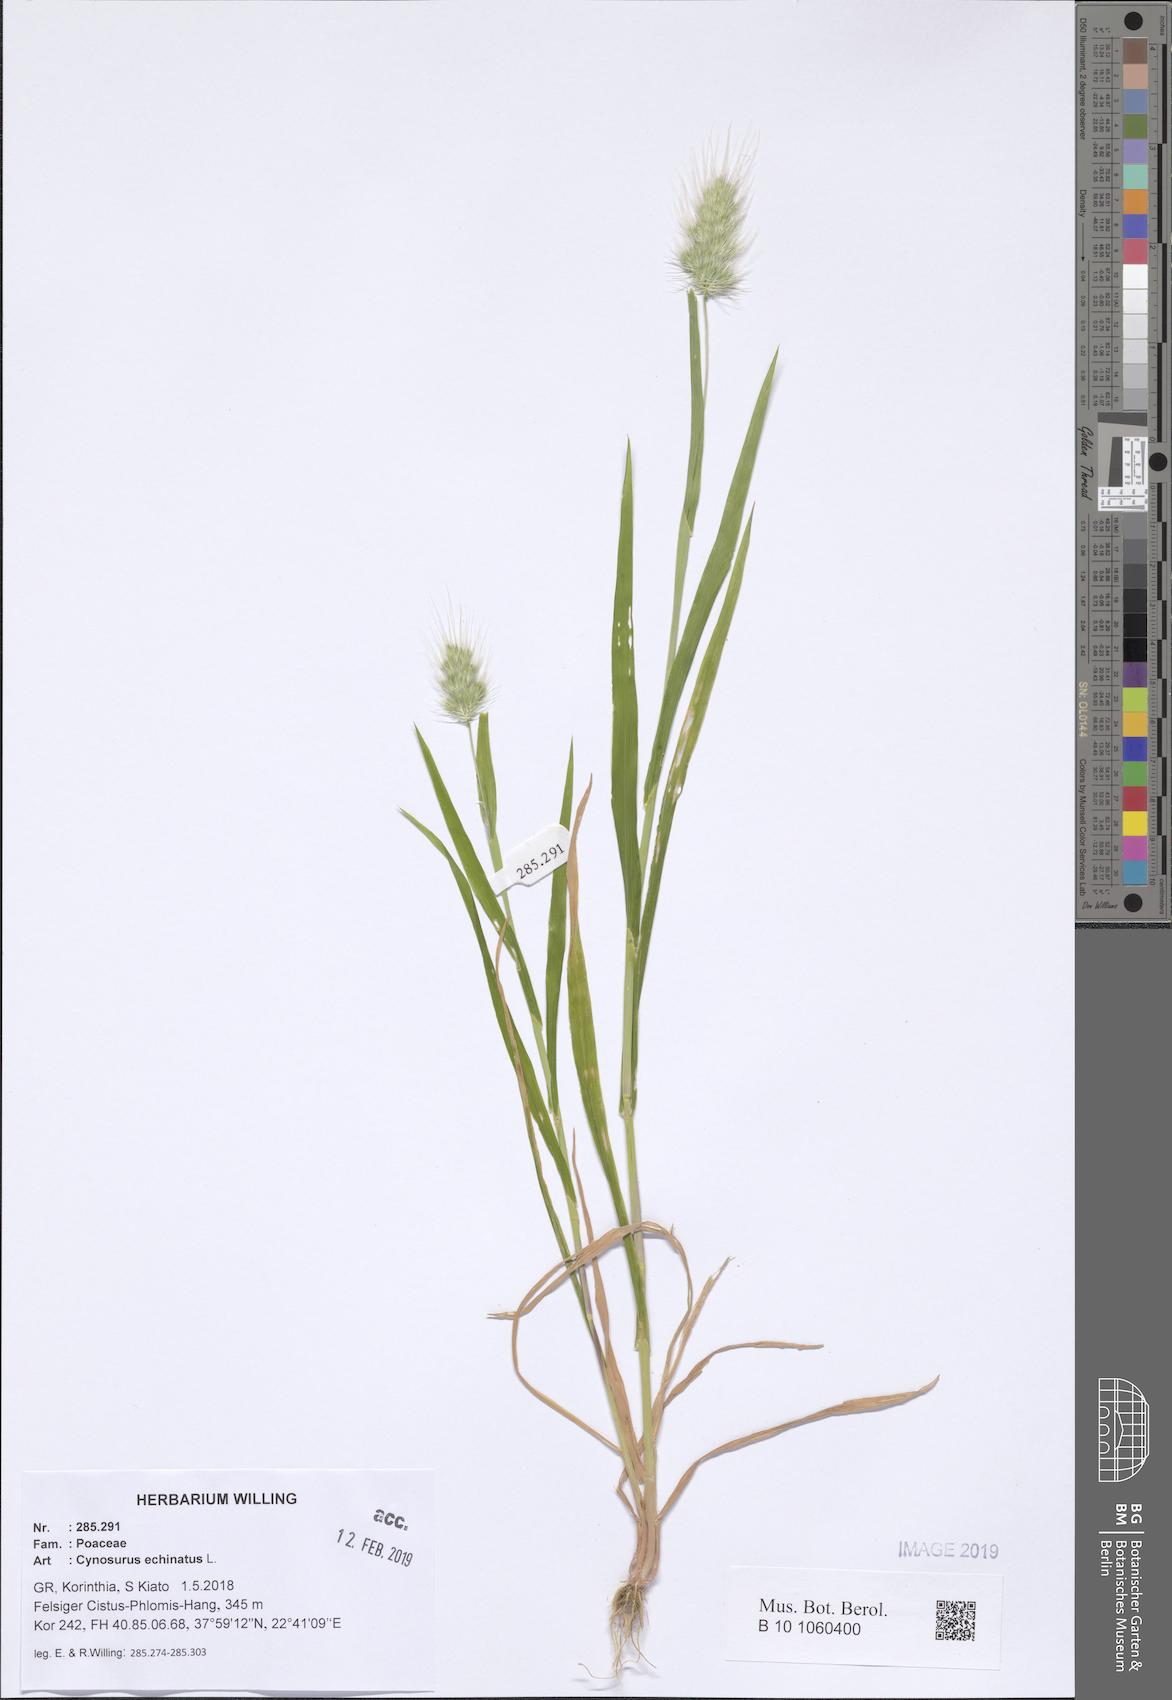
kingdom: Plantae
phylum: Tracheophyta
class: Liliopsida
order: Poales
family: Poaceae
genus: Cynosurus
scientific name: Cynosurus echinatus
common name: Rough dog's-tail
